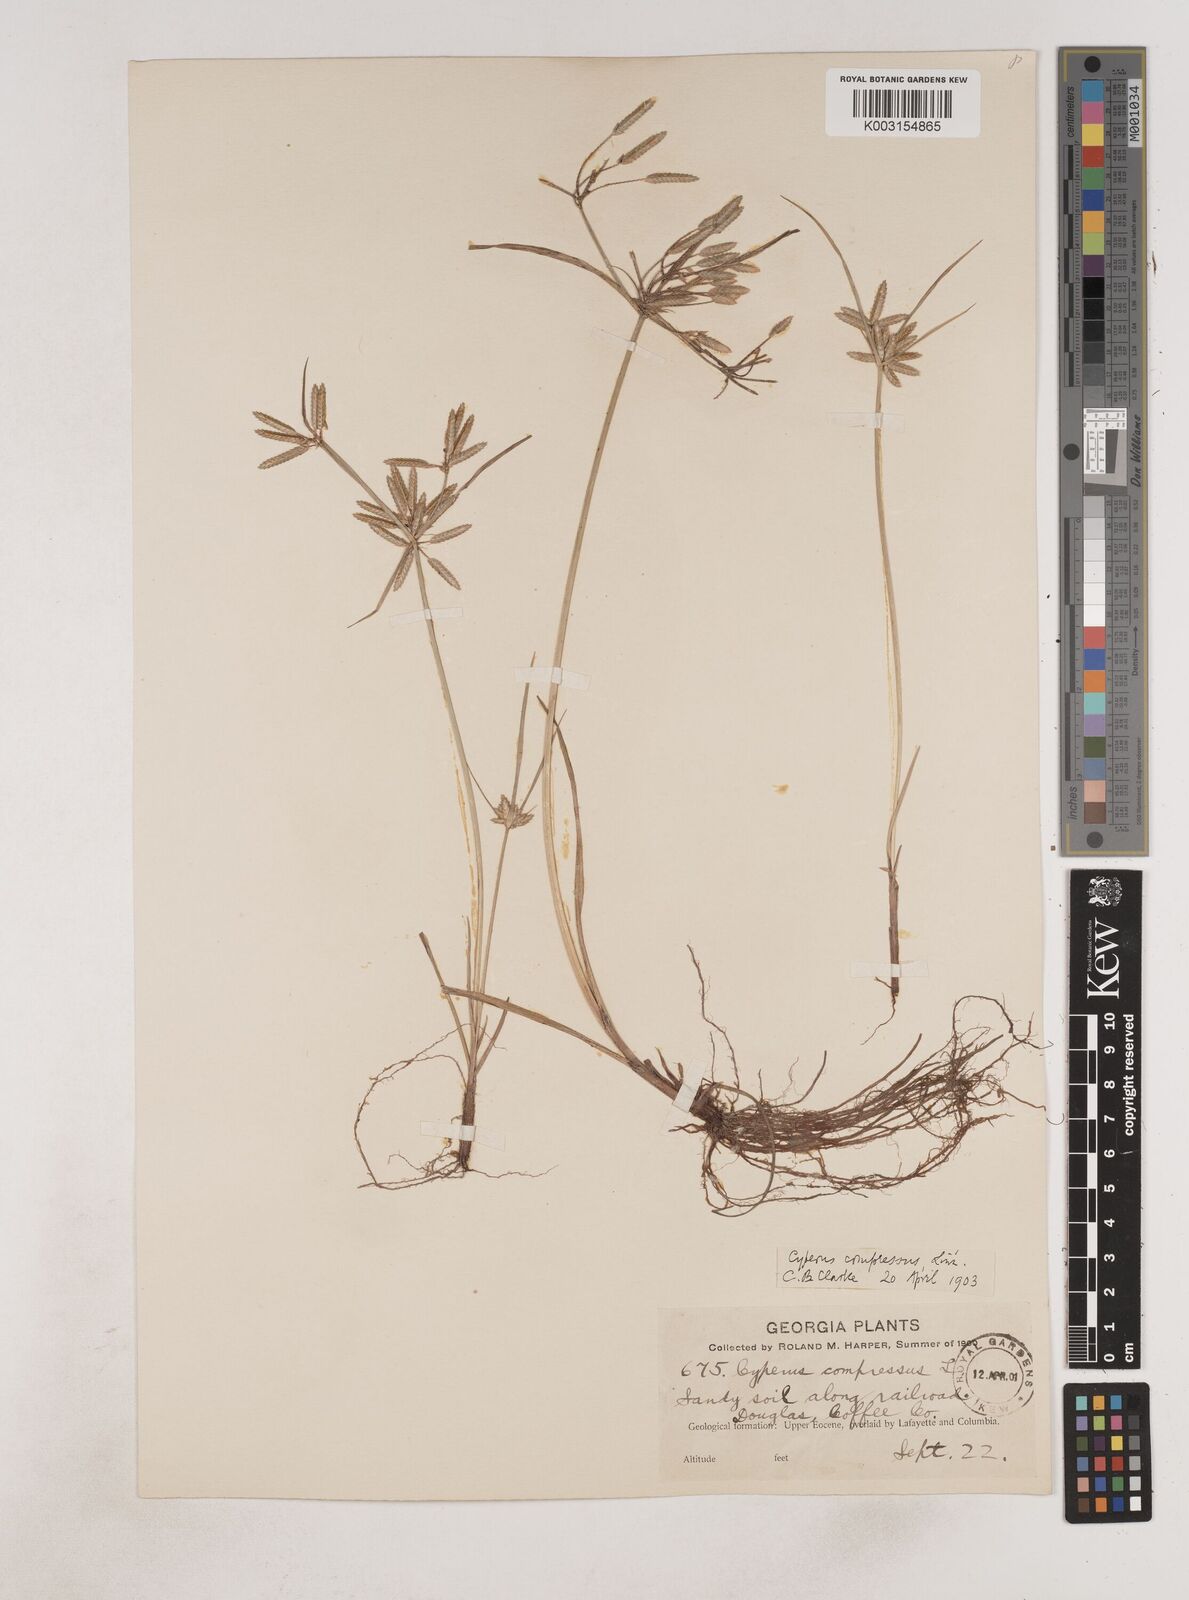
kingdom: Plantae
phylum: Tracheophyta
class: Liliopsida
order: Poales
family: Cyperaceae
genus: Cyperus
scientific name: Cyperus compressus
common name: Poorland flatsedge
